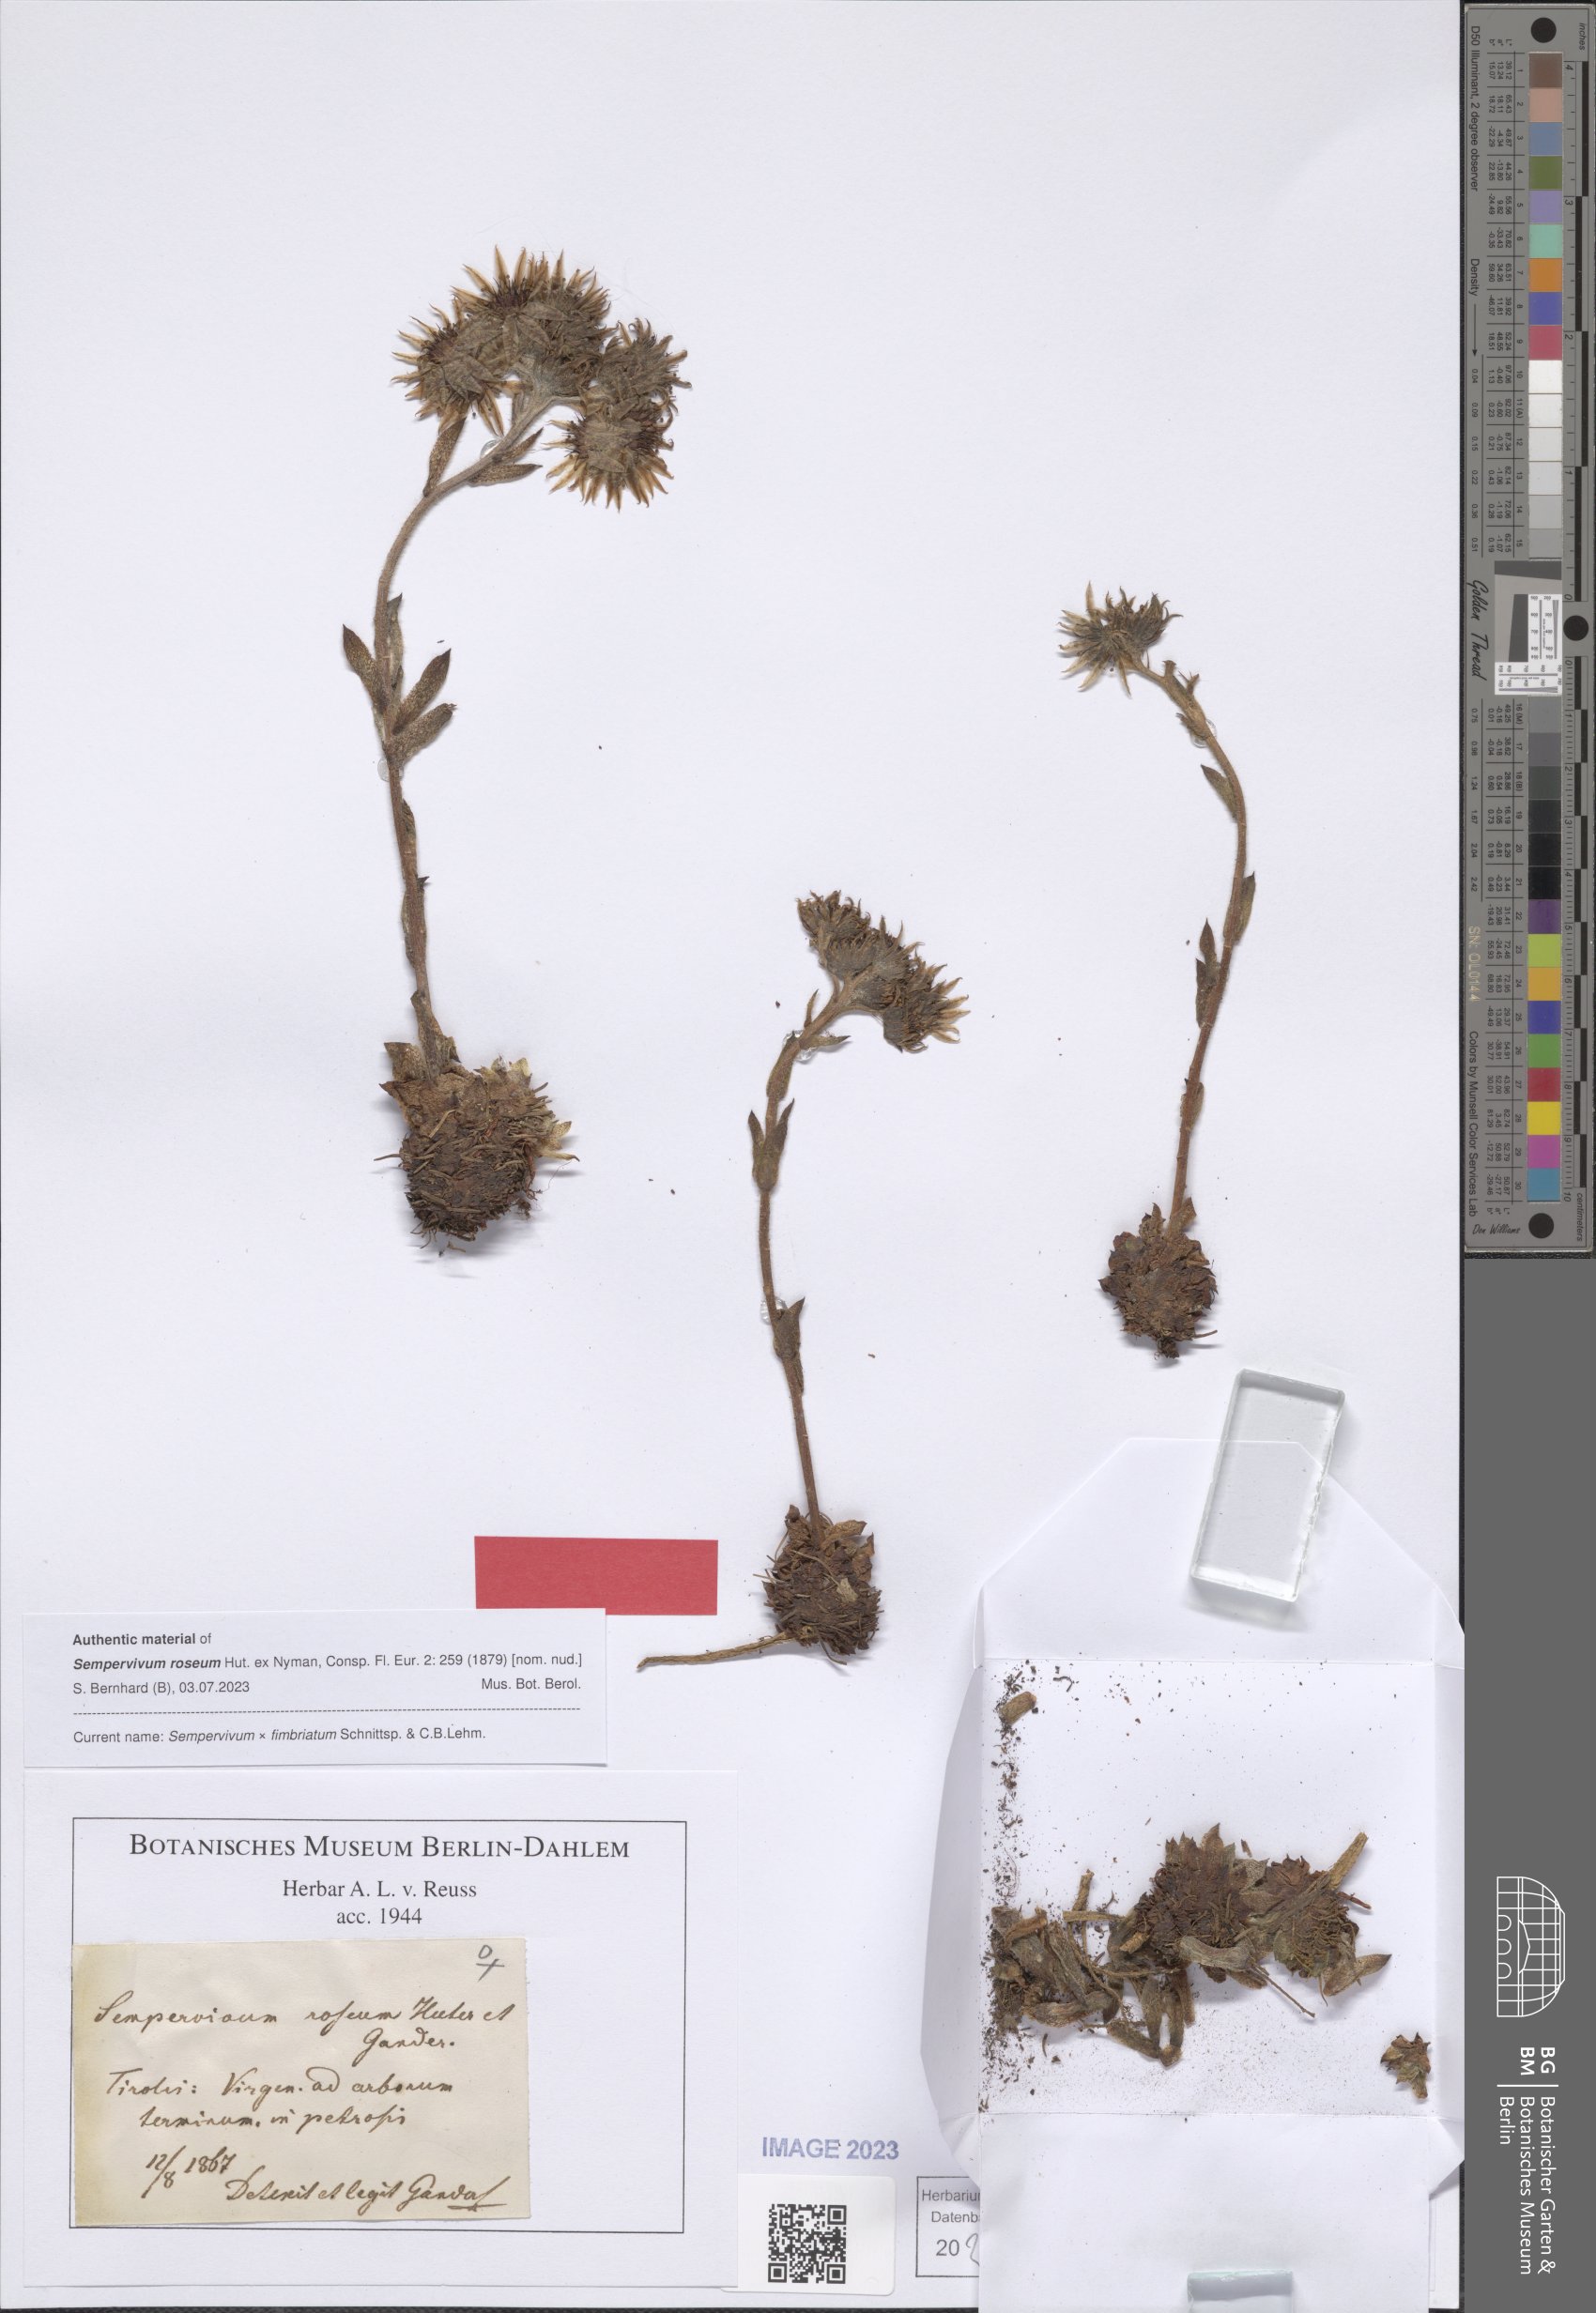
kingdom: Plantae
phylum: Tracheophyta
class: Magnoliopsida
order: Saxifragales
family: Crassulaceae
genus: Sempervivum
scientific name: Sempervivum fimbriatum
